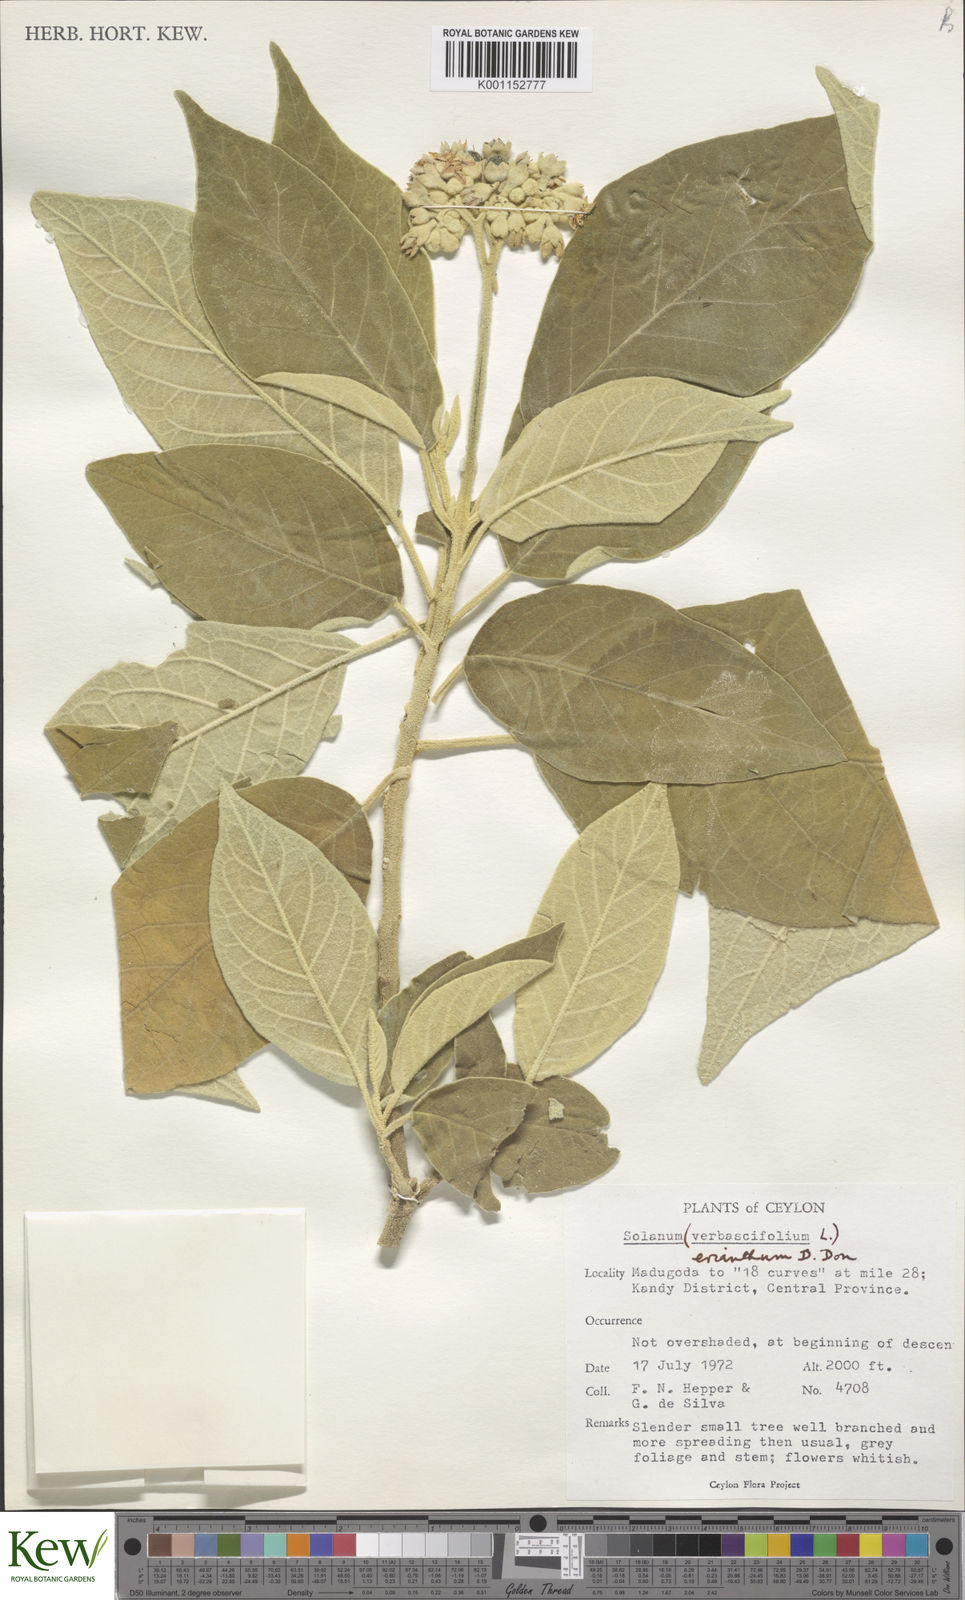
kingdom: Plantae
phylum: Tracheophyta
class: Magnoliopsida
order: Solanales
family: Solanaceae
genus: Solanum
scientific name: Solanum erianthum
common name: Tobacco-tree
